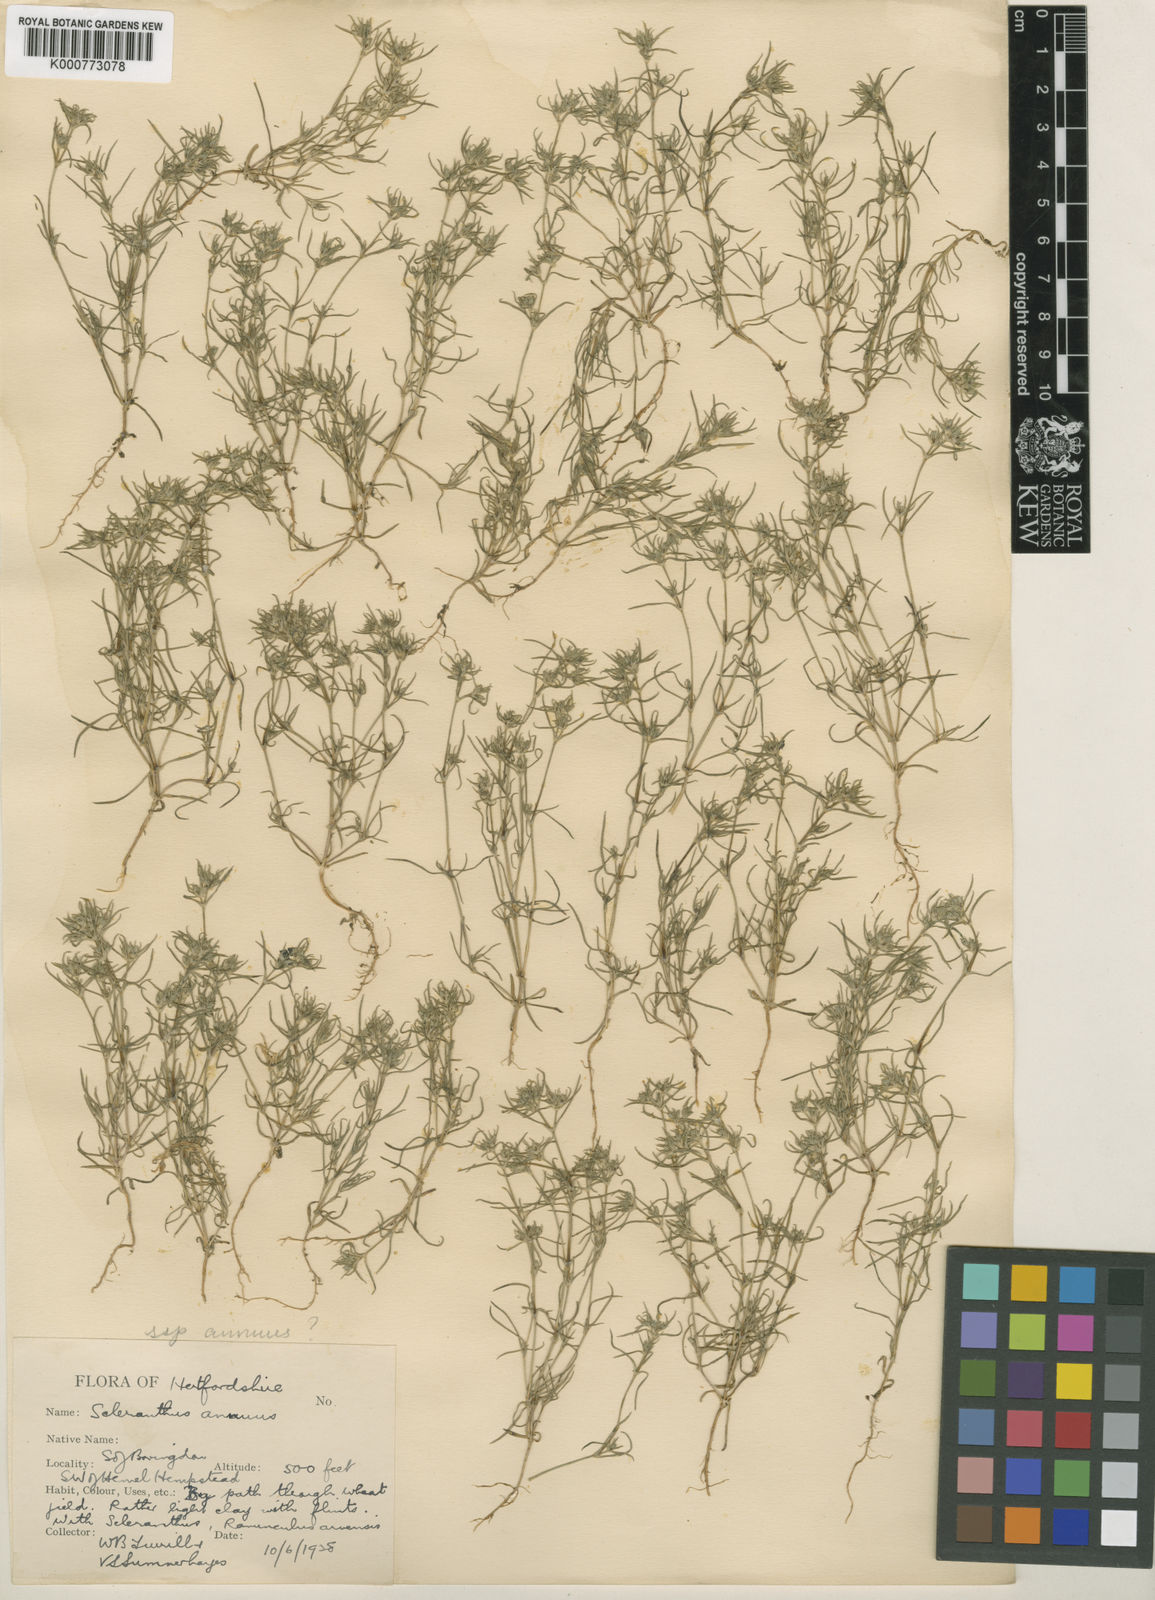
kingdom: Plantae
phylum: Tracheophyta
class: Magnoliopsida
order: Caryophyllales
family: Caryophyllaceae
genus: Scleranthus
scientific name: Scleranthus annuus
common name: Annual knawel
